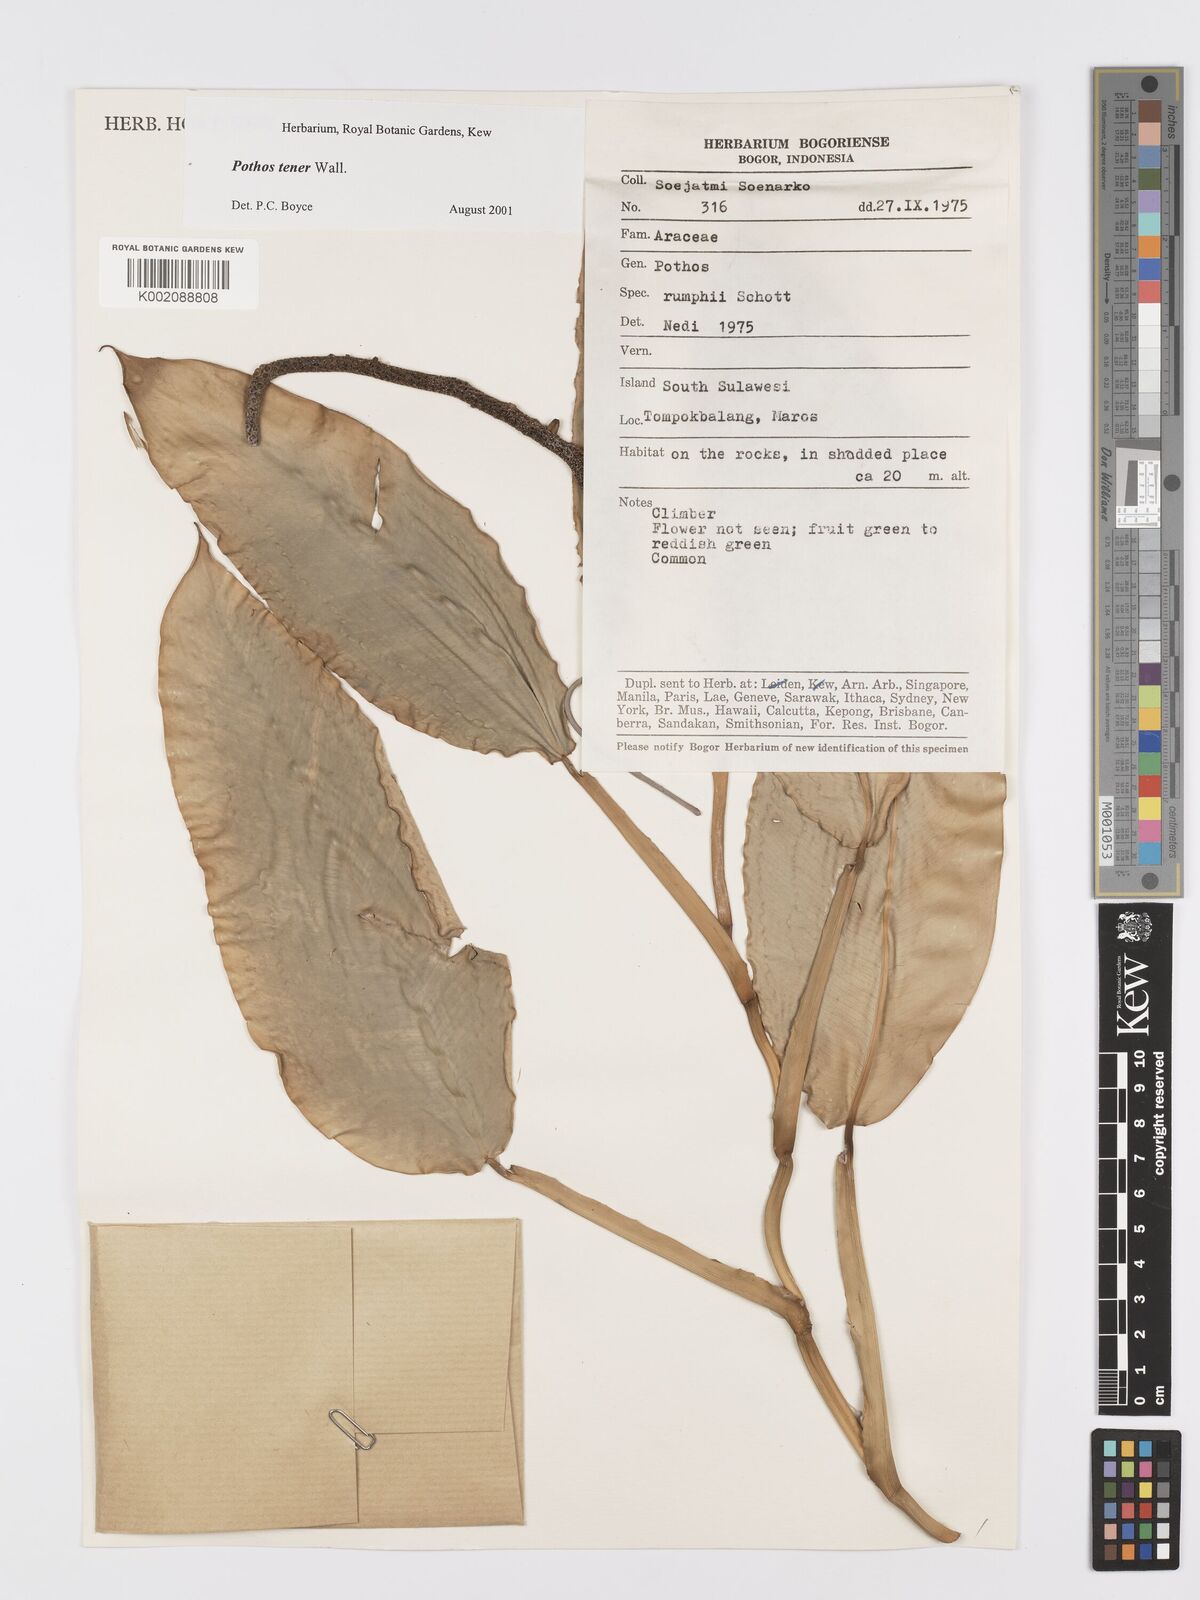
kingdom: Plantae
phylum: Tracheophyta
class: Liliopsida
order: Alismatales
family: Araceae
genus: Pothos
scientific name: Pothos tener
